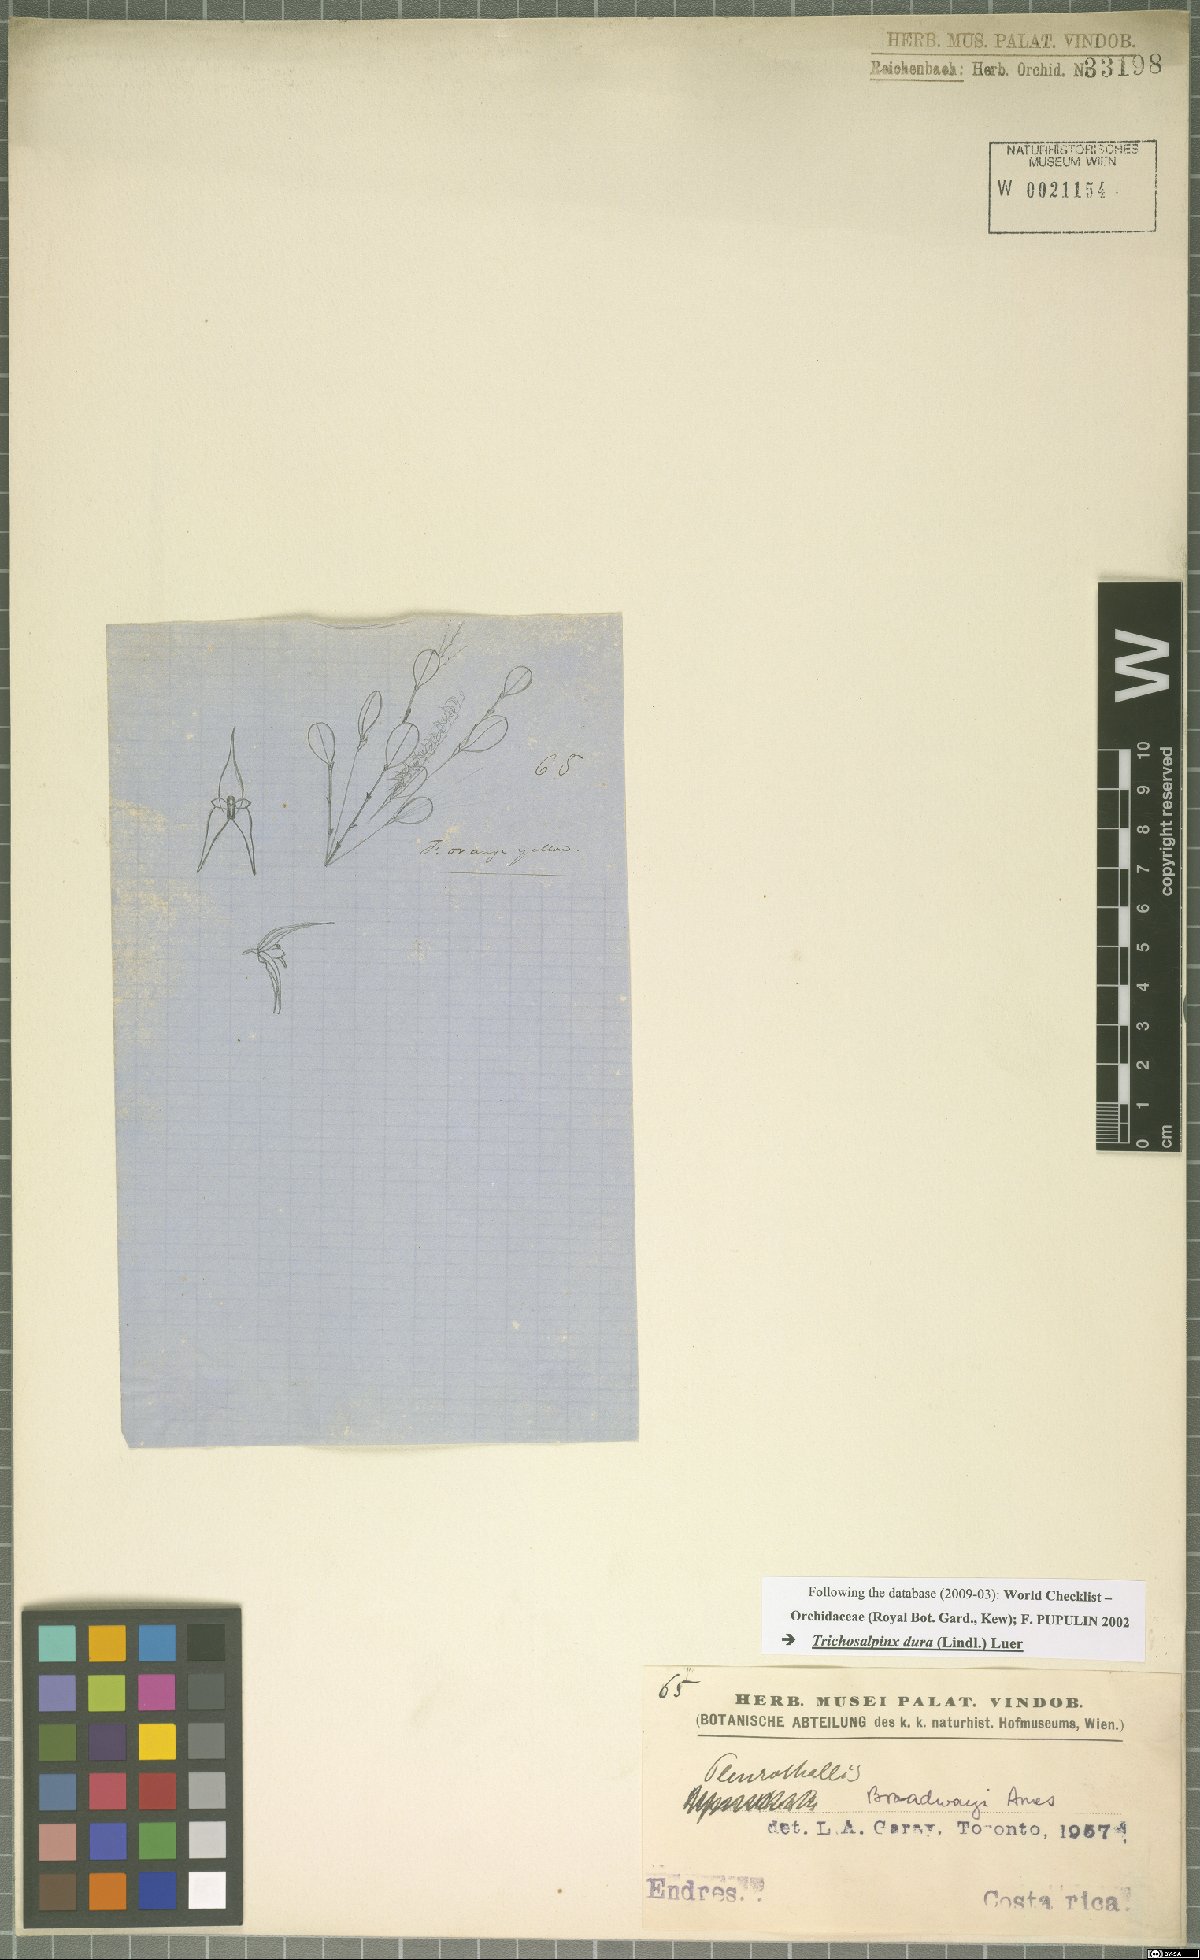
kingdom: Plantae
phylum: Tracheophyta
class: Liliopsida
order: Asparagales
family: Orchidaceae
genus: Trichosalpinx
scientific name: Trichosalpinx dura
